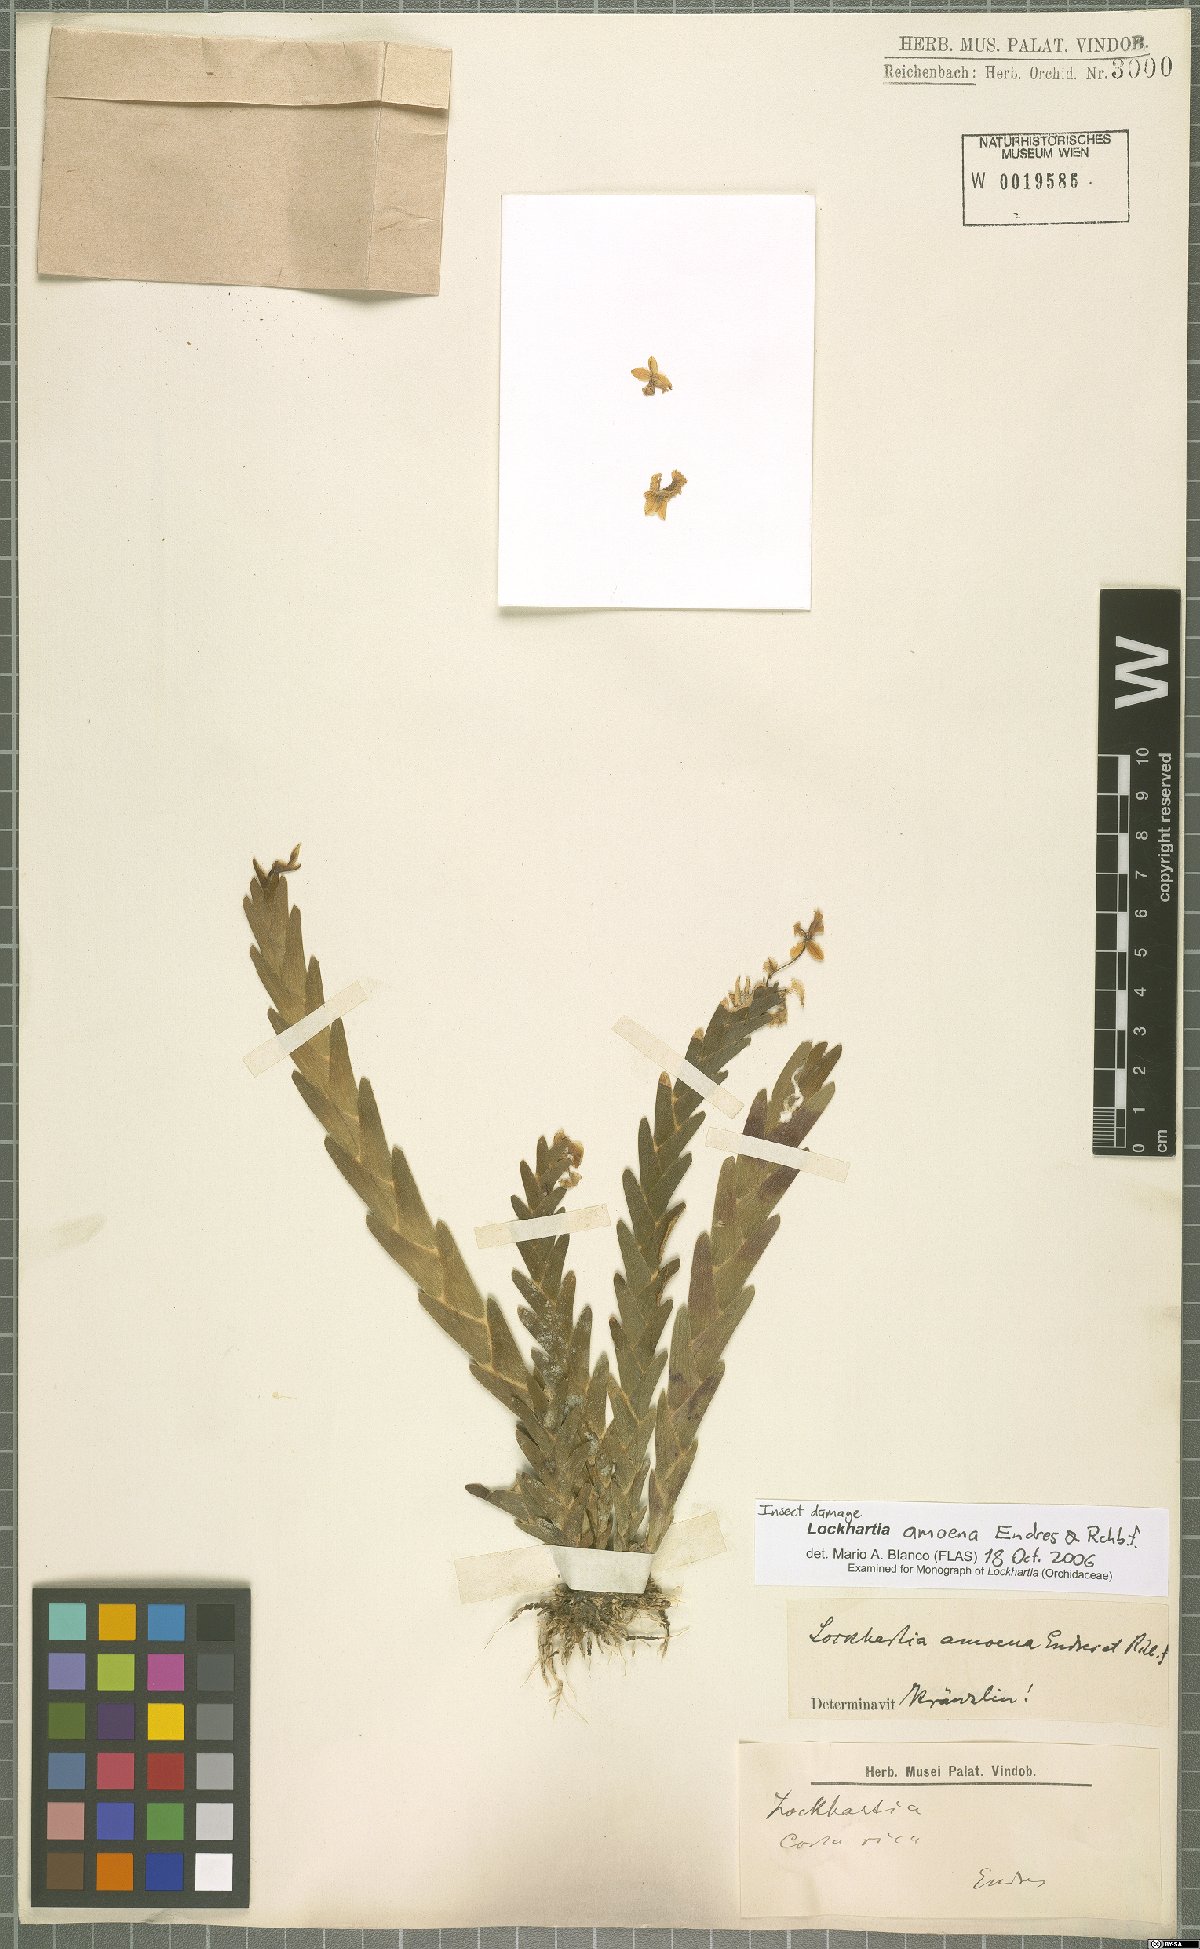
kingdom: Plantae
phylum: Tracheophyta
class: Liliopsida
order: Asparagales
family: Orchidaceae
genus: Lockhartia
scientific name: Lockhartia amoena
